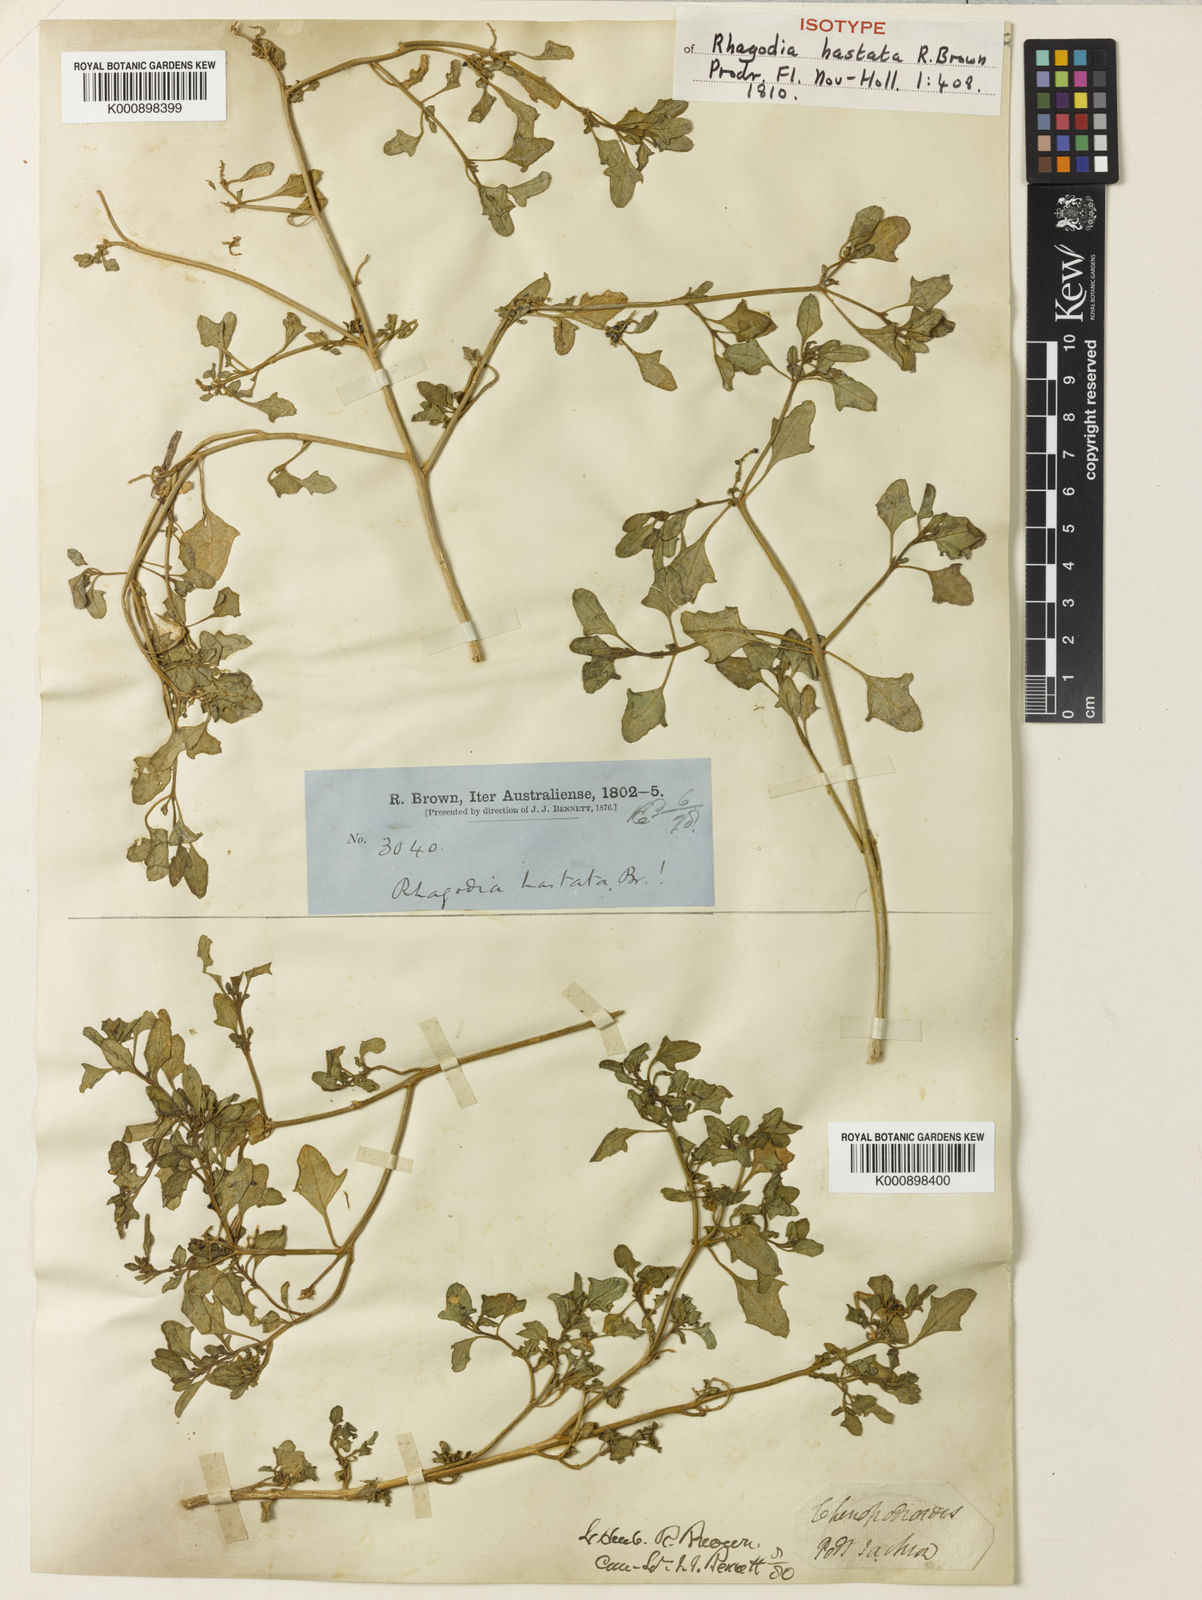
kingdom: Plantae
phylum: Tracheophyta
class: Magnoliopsida
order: Caryophyllales
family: Amaranthaceae
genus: Chenopodium
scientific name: Chenopodium robertianum
